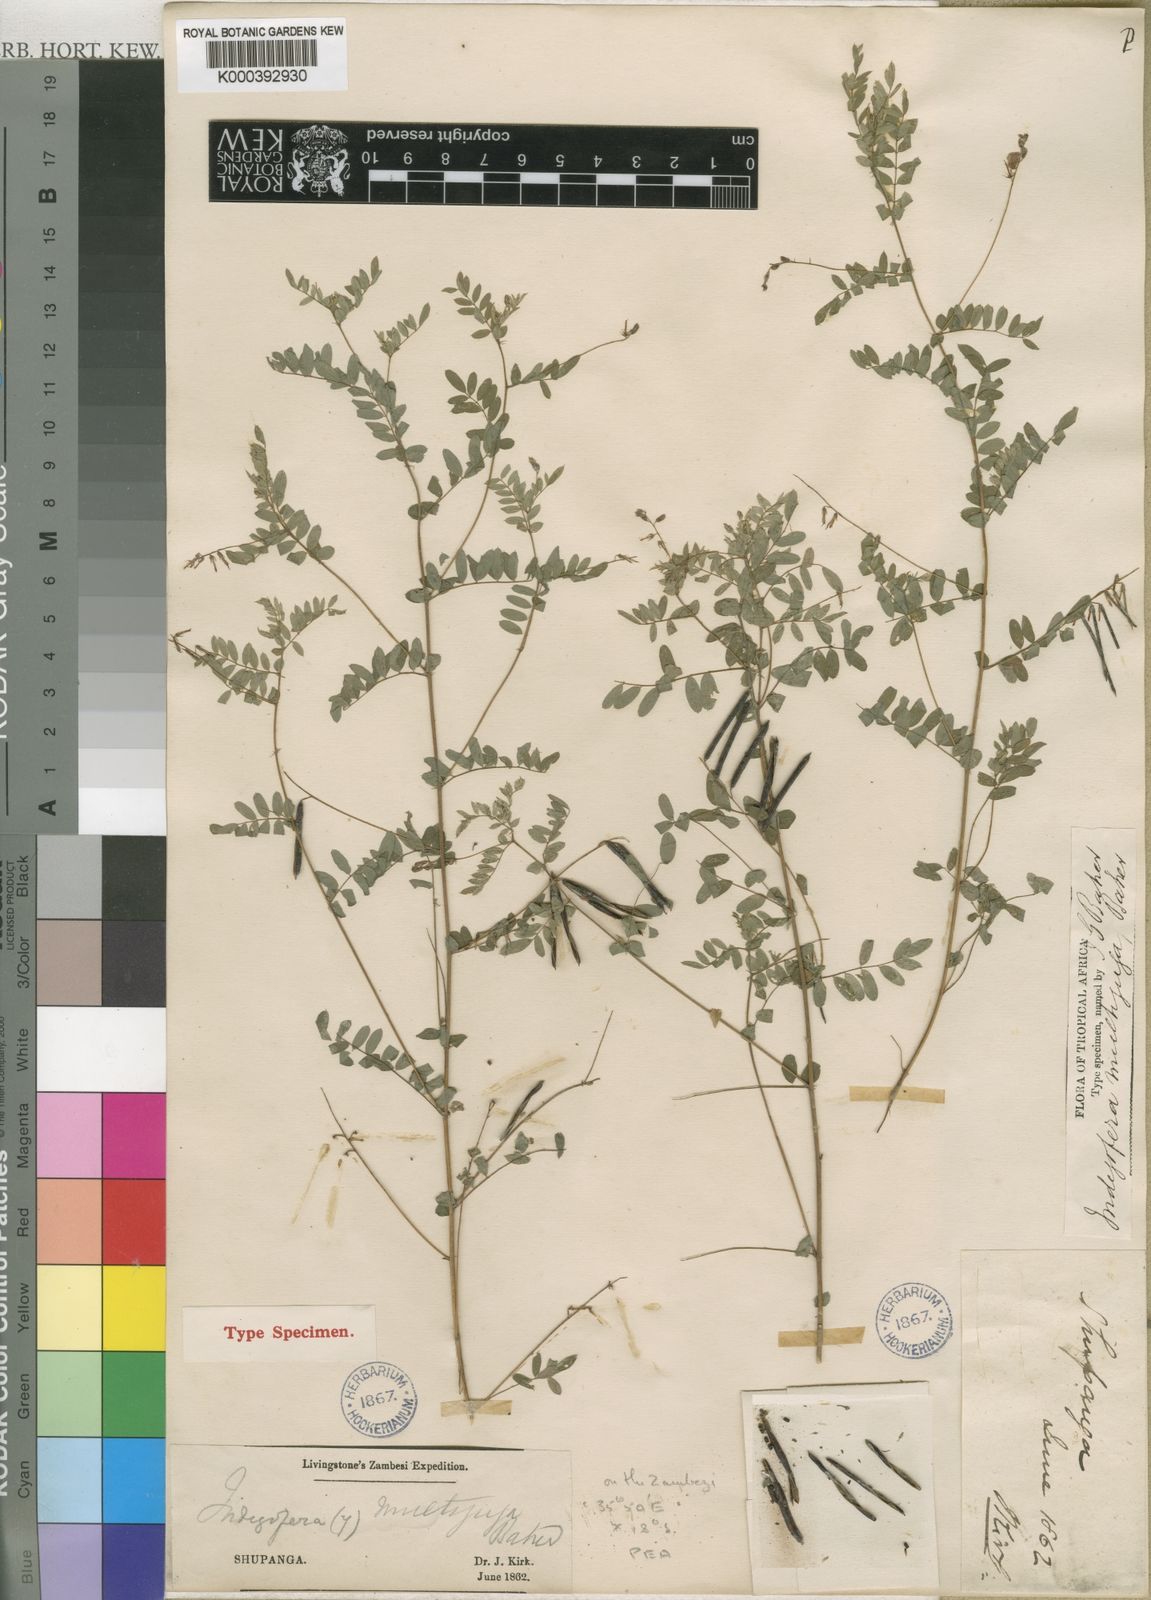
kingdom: Plantae
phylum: Tracheophyta
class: Magnoliopsida
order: Fabales
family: Fabaceae
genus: Indigofera
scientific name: Indigofera dendroides
